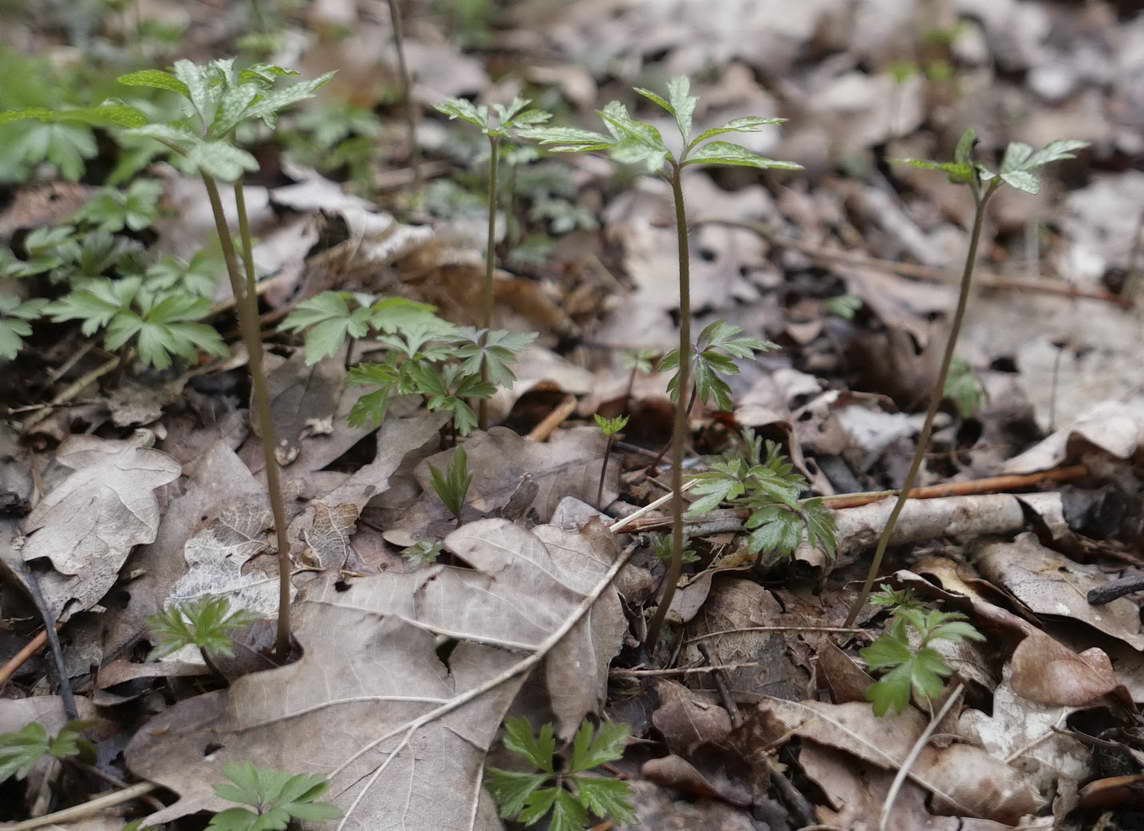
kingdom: Fungi
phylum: Basidiomycota
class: Pucciniomycetes
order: Pucciniales
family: Tranzscheliaceae
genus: Tranzschelia
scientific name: Tranzschelia anemones
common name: anemone-knæksporerust
